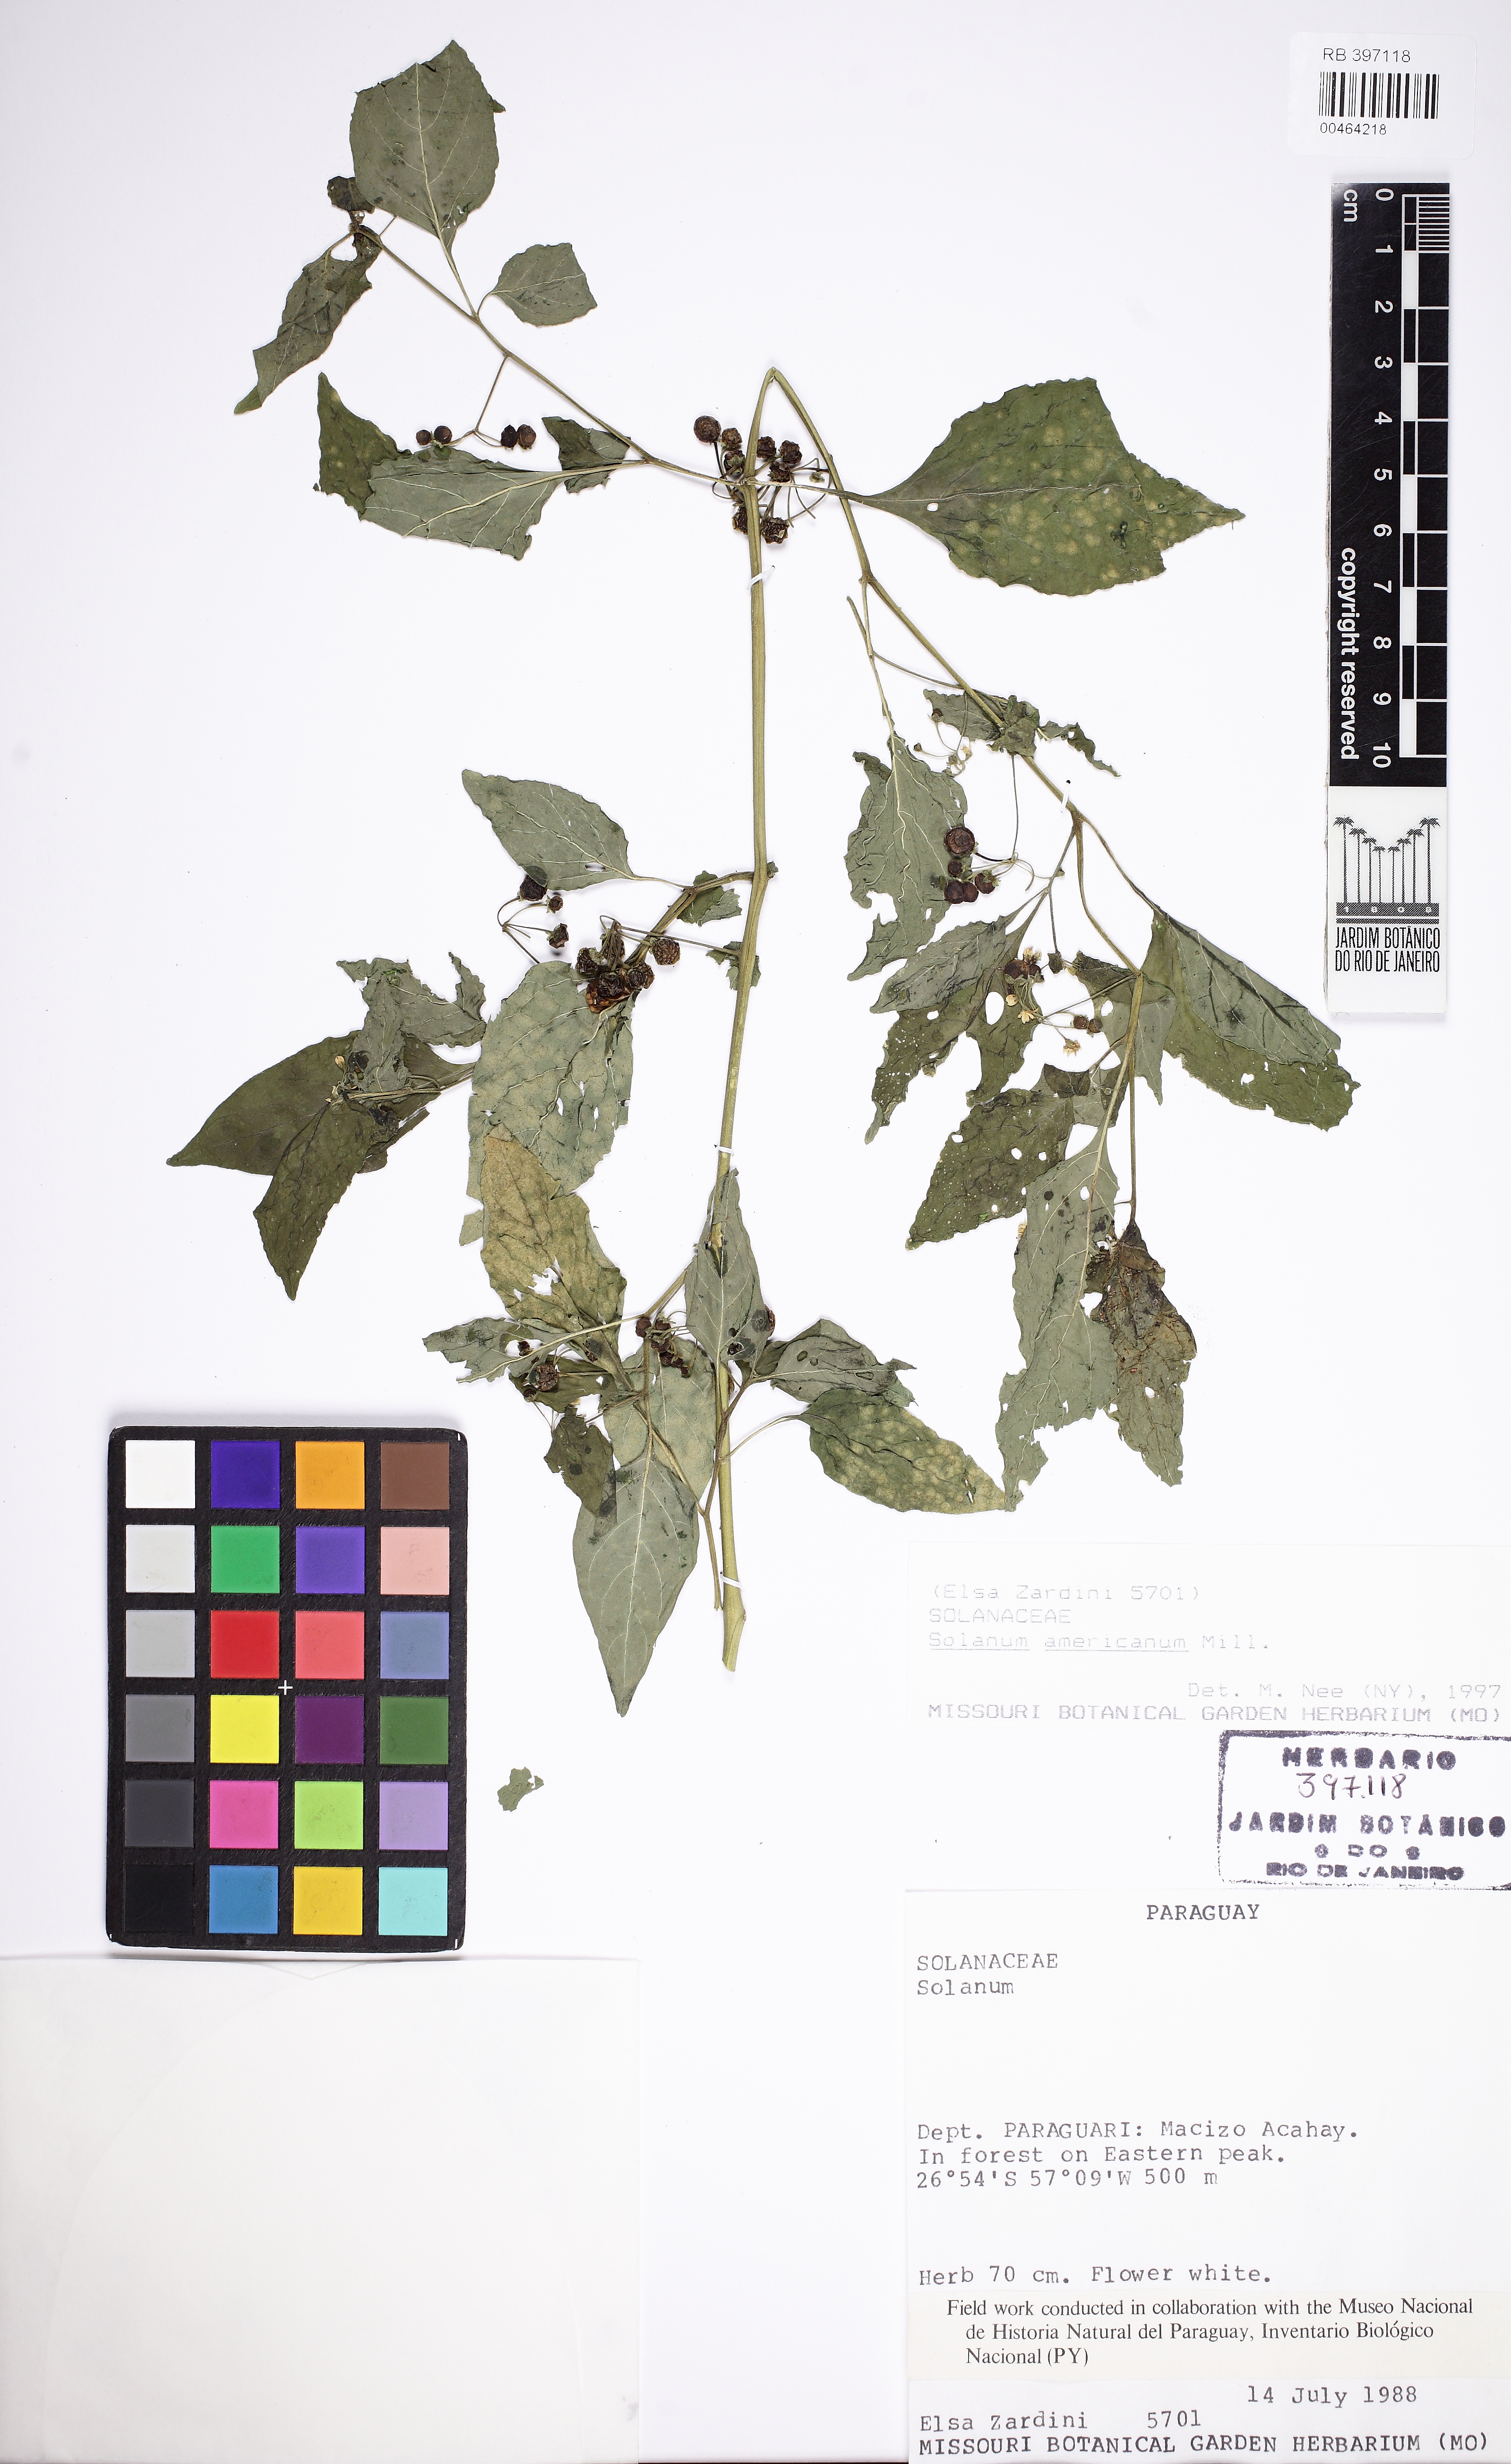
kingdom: Plantae
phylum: Tracheophyta
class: Magnoliopsida
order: Solanales
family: Solanaceae
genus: Solanum
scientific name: Solanum americanum
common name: American black nightshade
